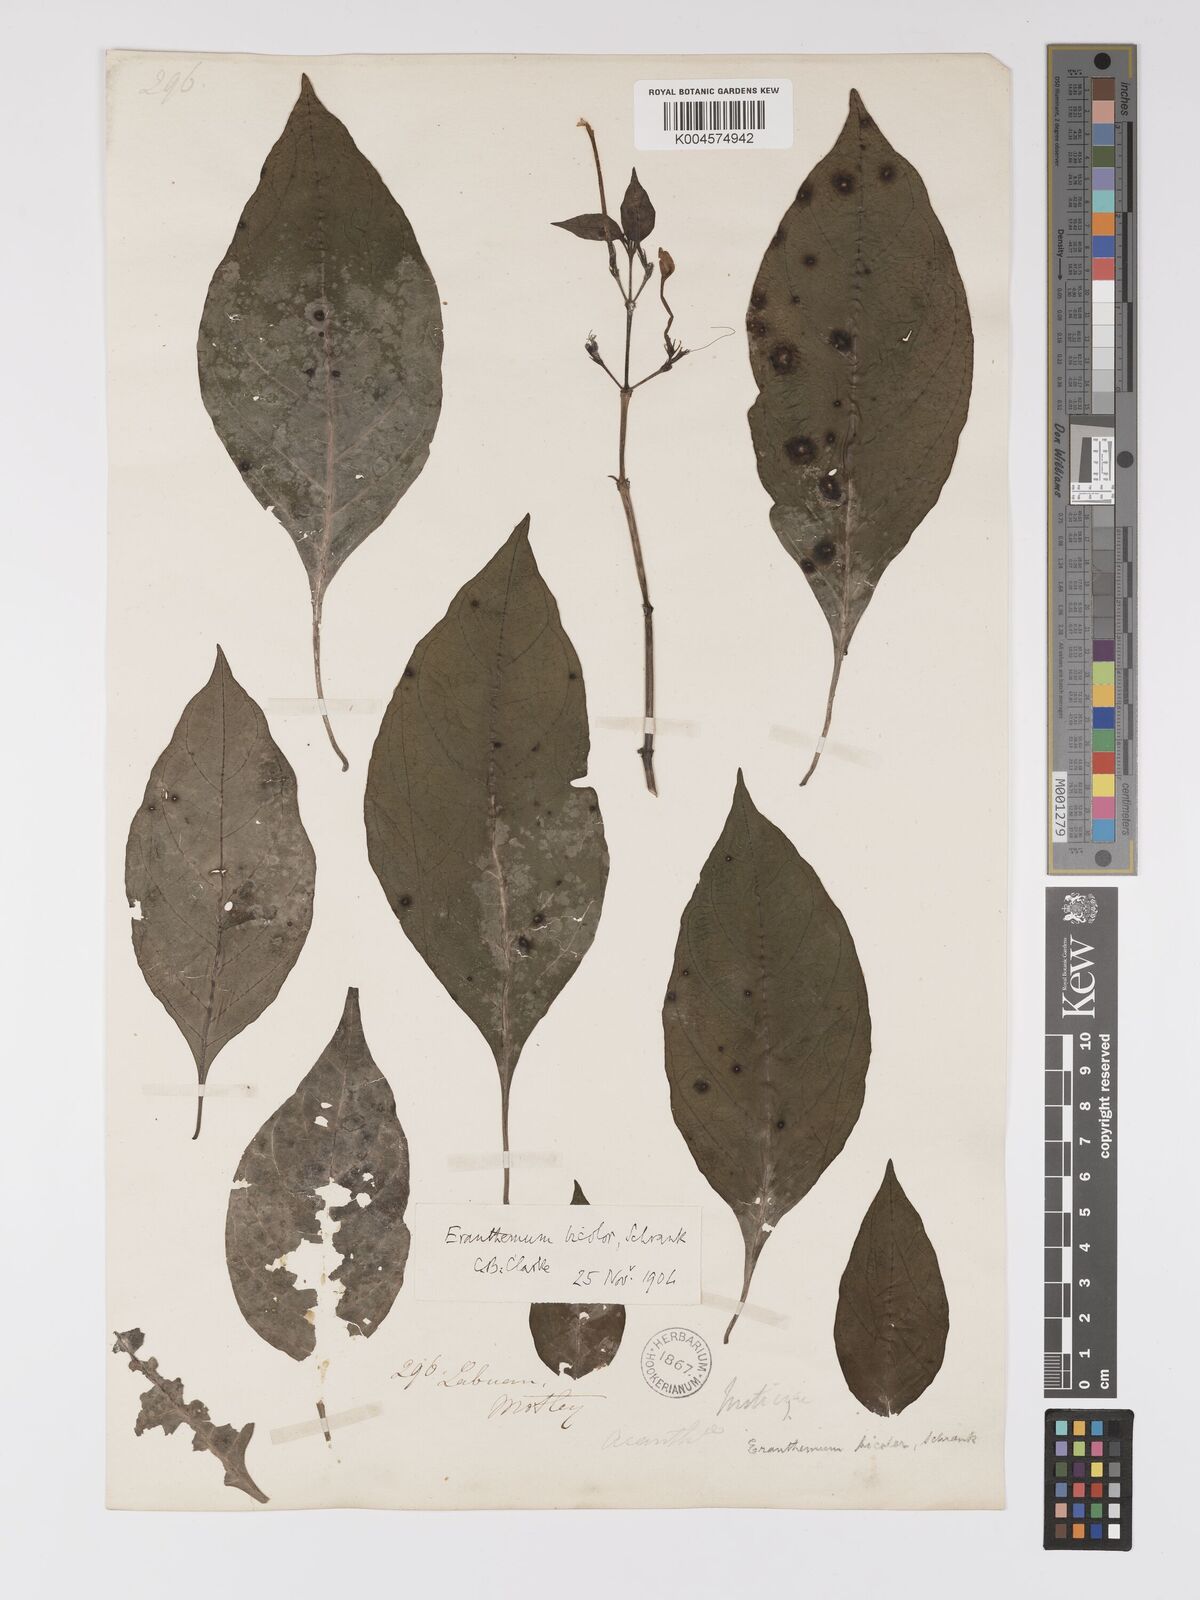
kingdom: Plantae
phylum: Tracheophyta
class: Magnoliopsida
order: Lamiales
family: Acanthaceae
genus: Pseuderanthemum
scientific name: Pseuderanthemum
